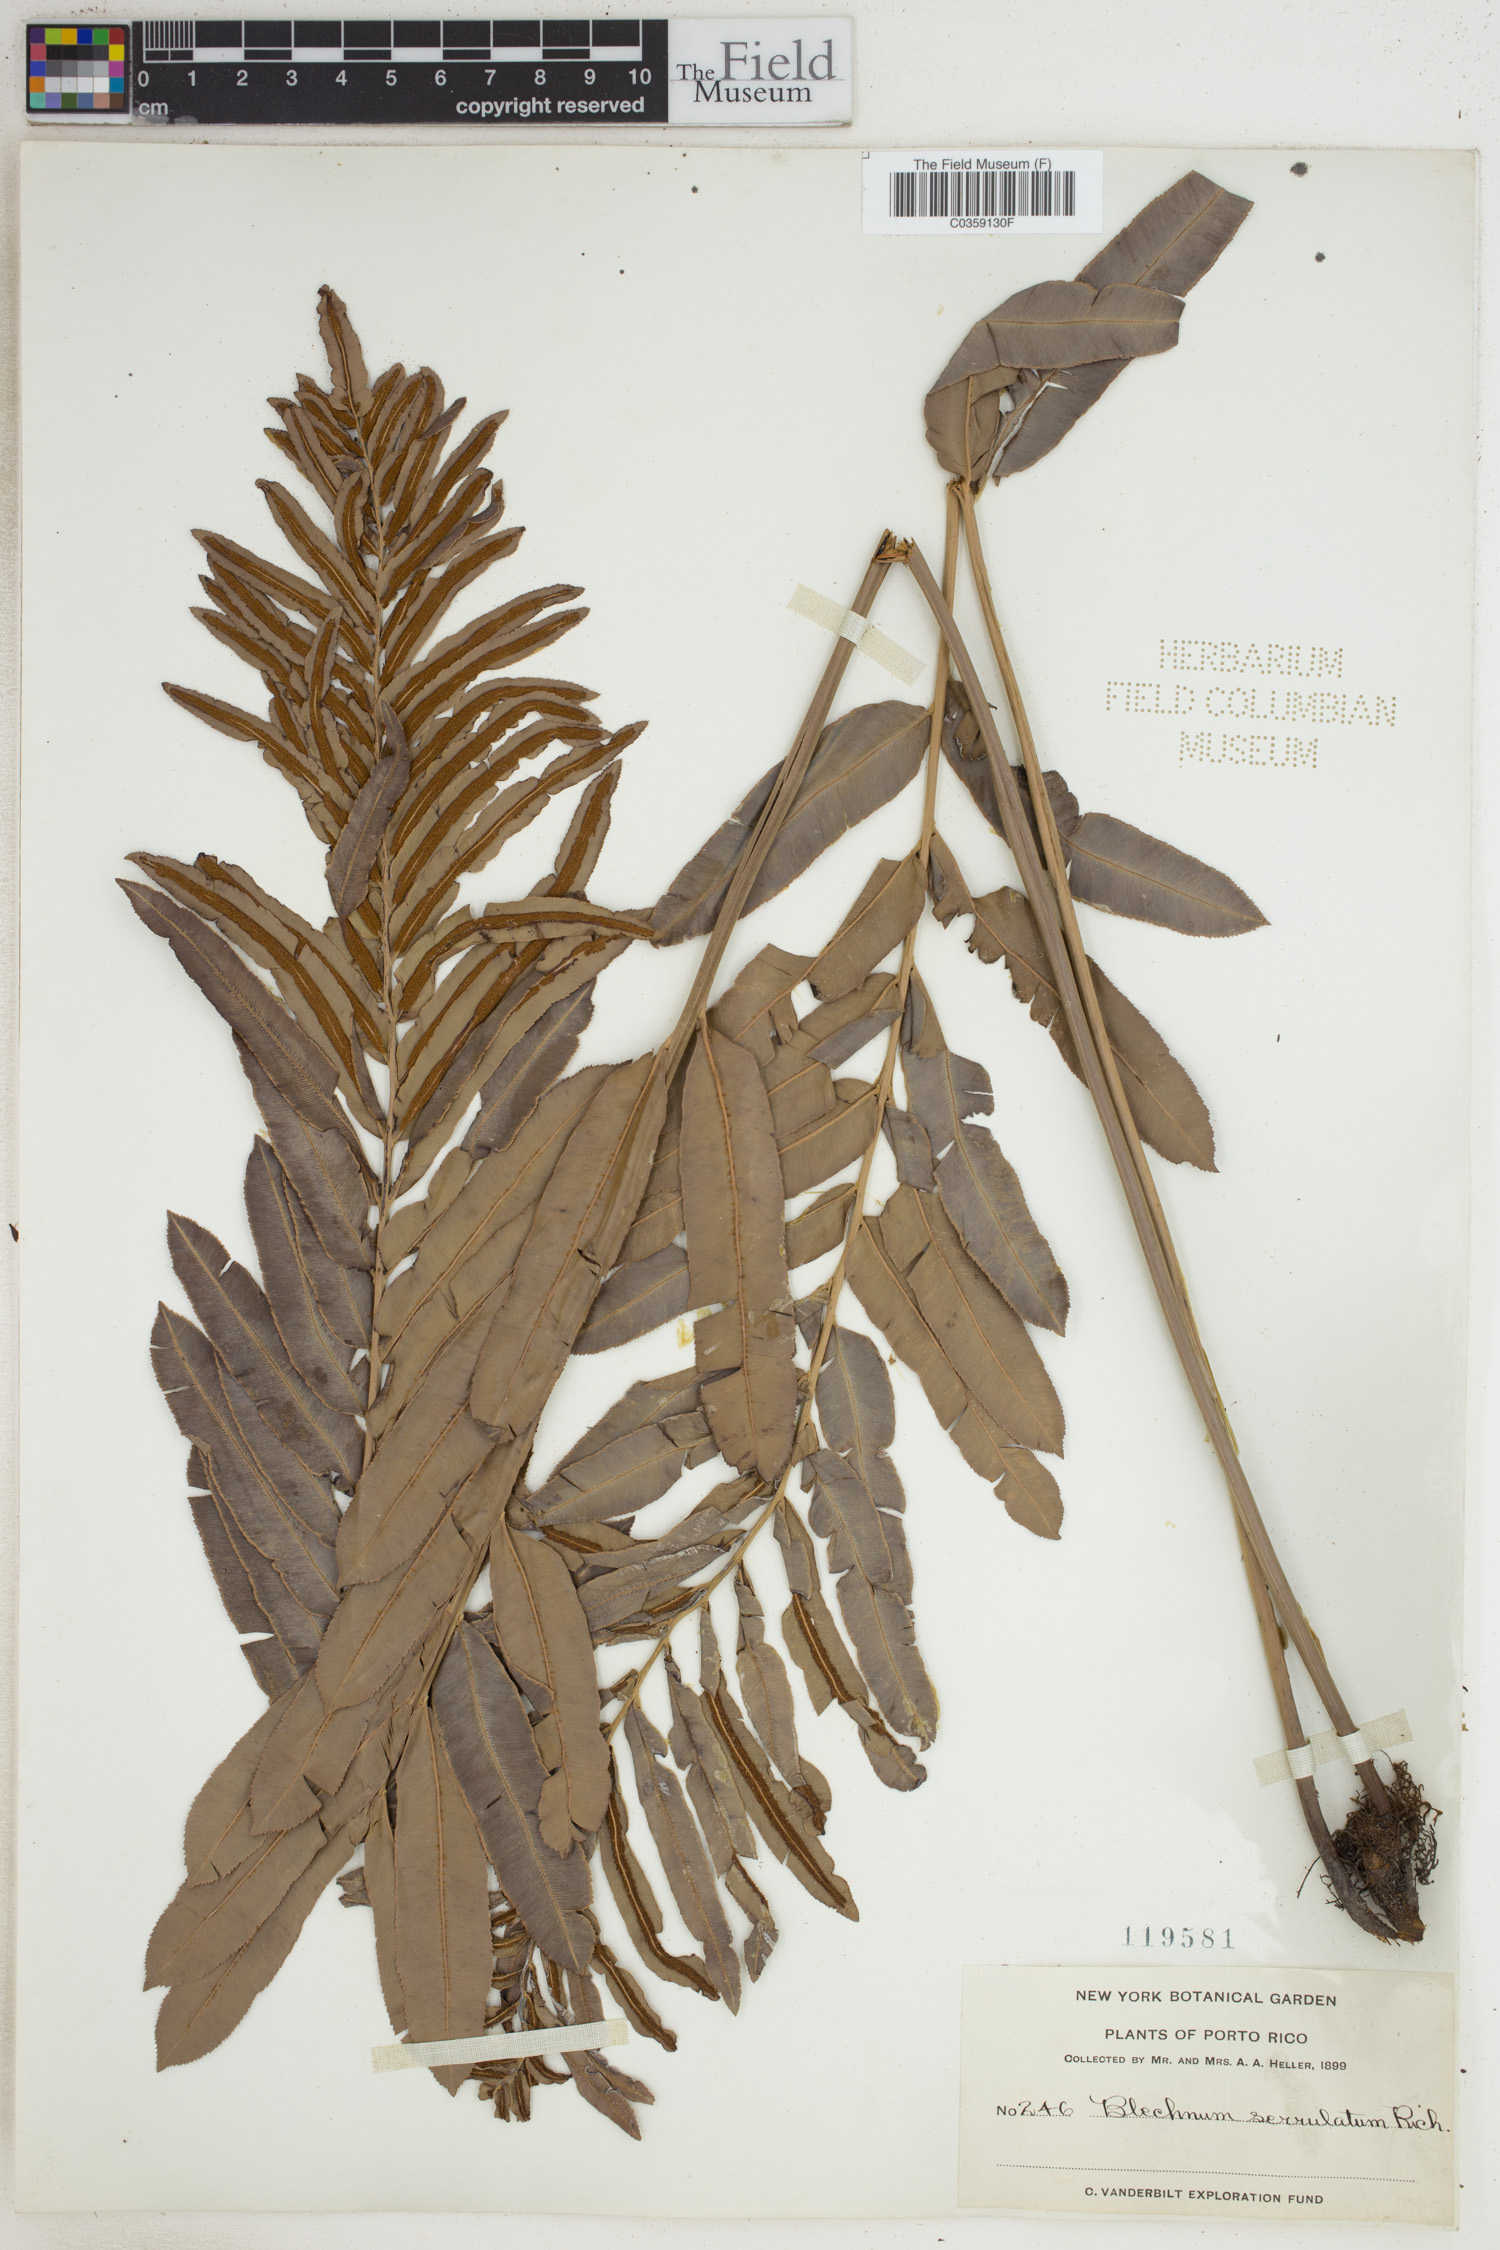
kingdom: Plantae
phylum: Tracheophyta
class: Polypodiopsida
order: Polypodiales
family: Blechnaceae
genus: Telmatoblechnum
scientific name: Telmatoblechnum serrulatum
